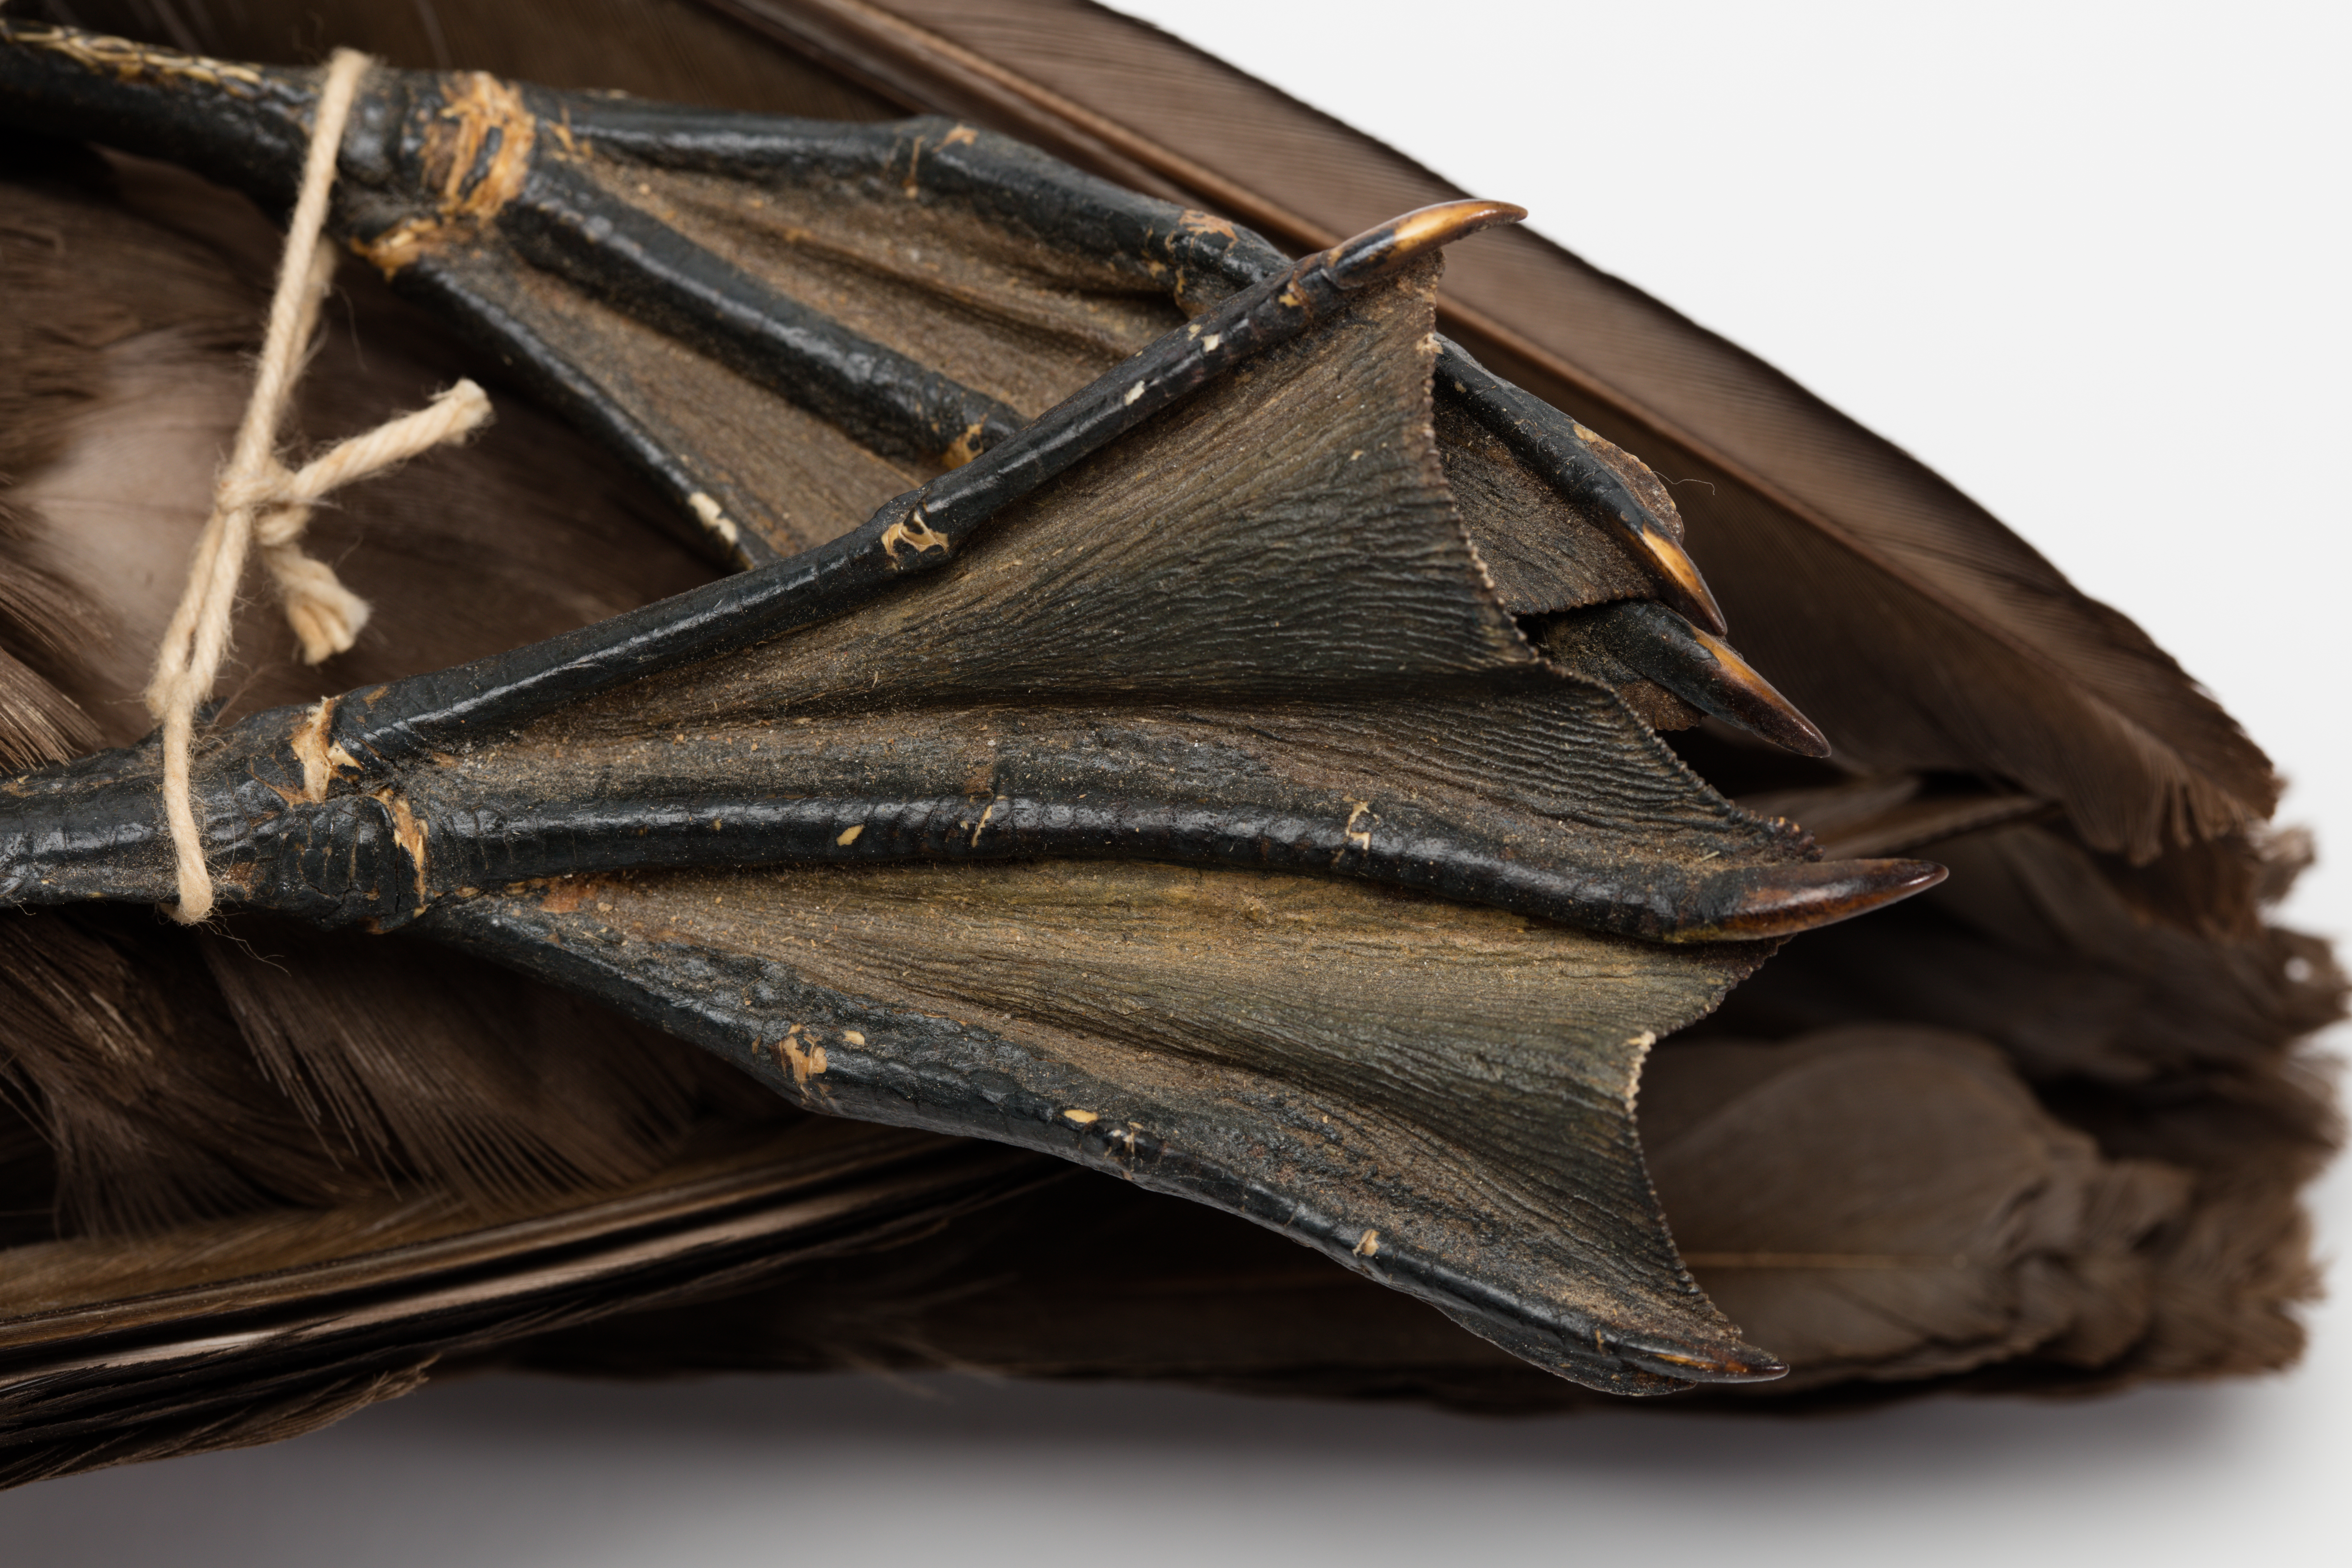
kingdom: Animalia
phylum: Chordata
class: Aves
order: Procellariiformes
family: Procellariidae
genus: Puffinus
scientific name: Puffinus carneipes
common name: Flesh-footed shearwater
